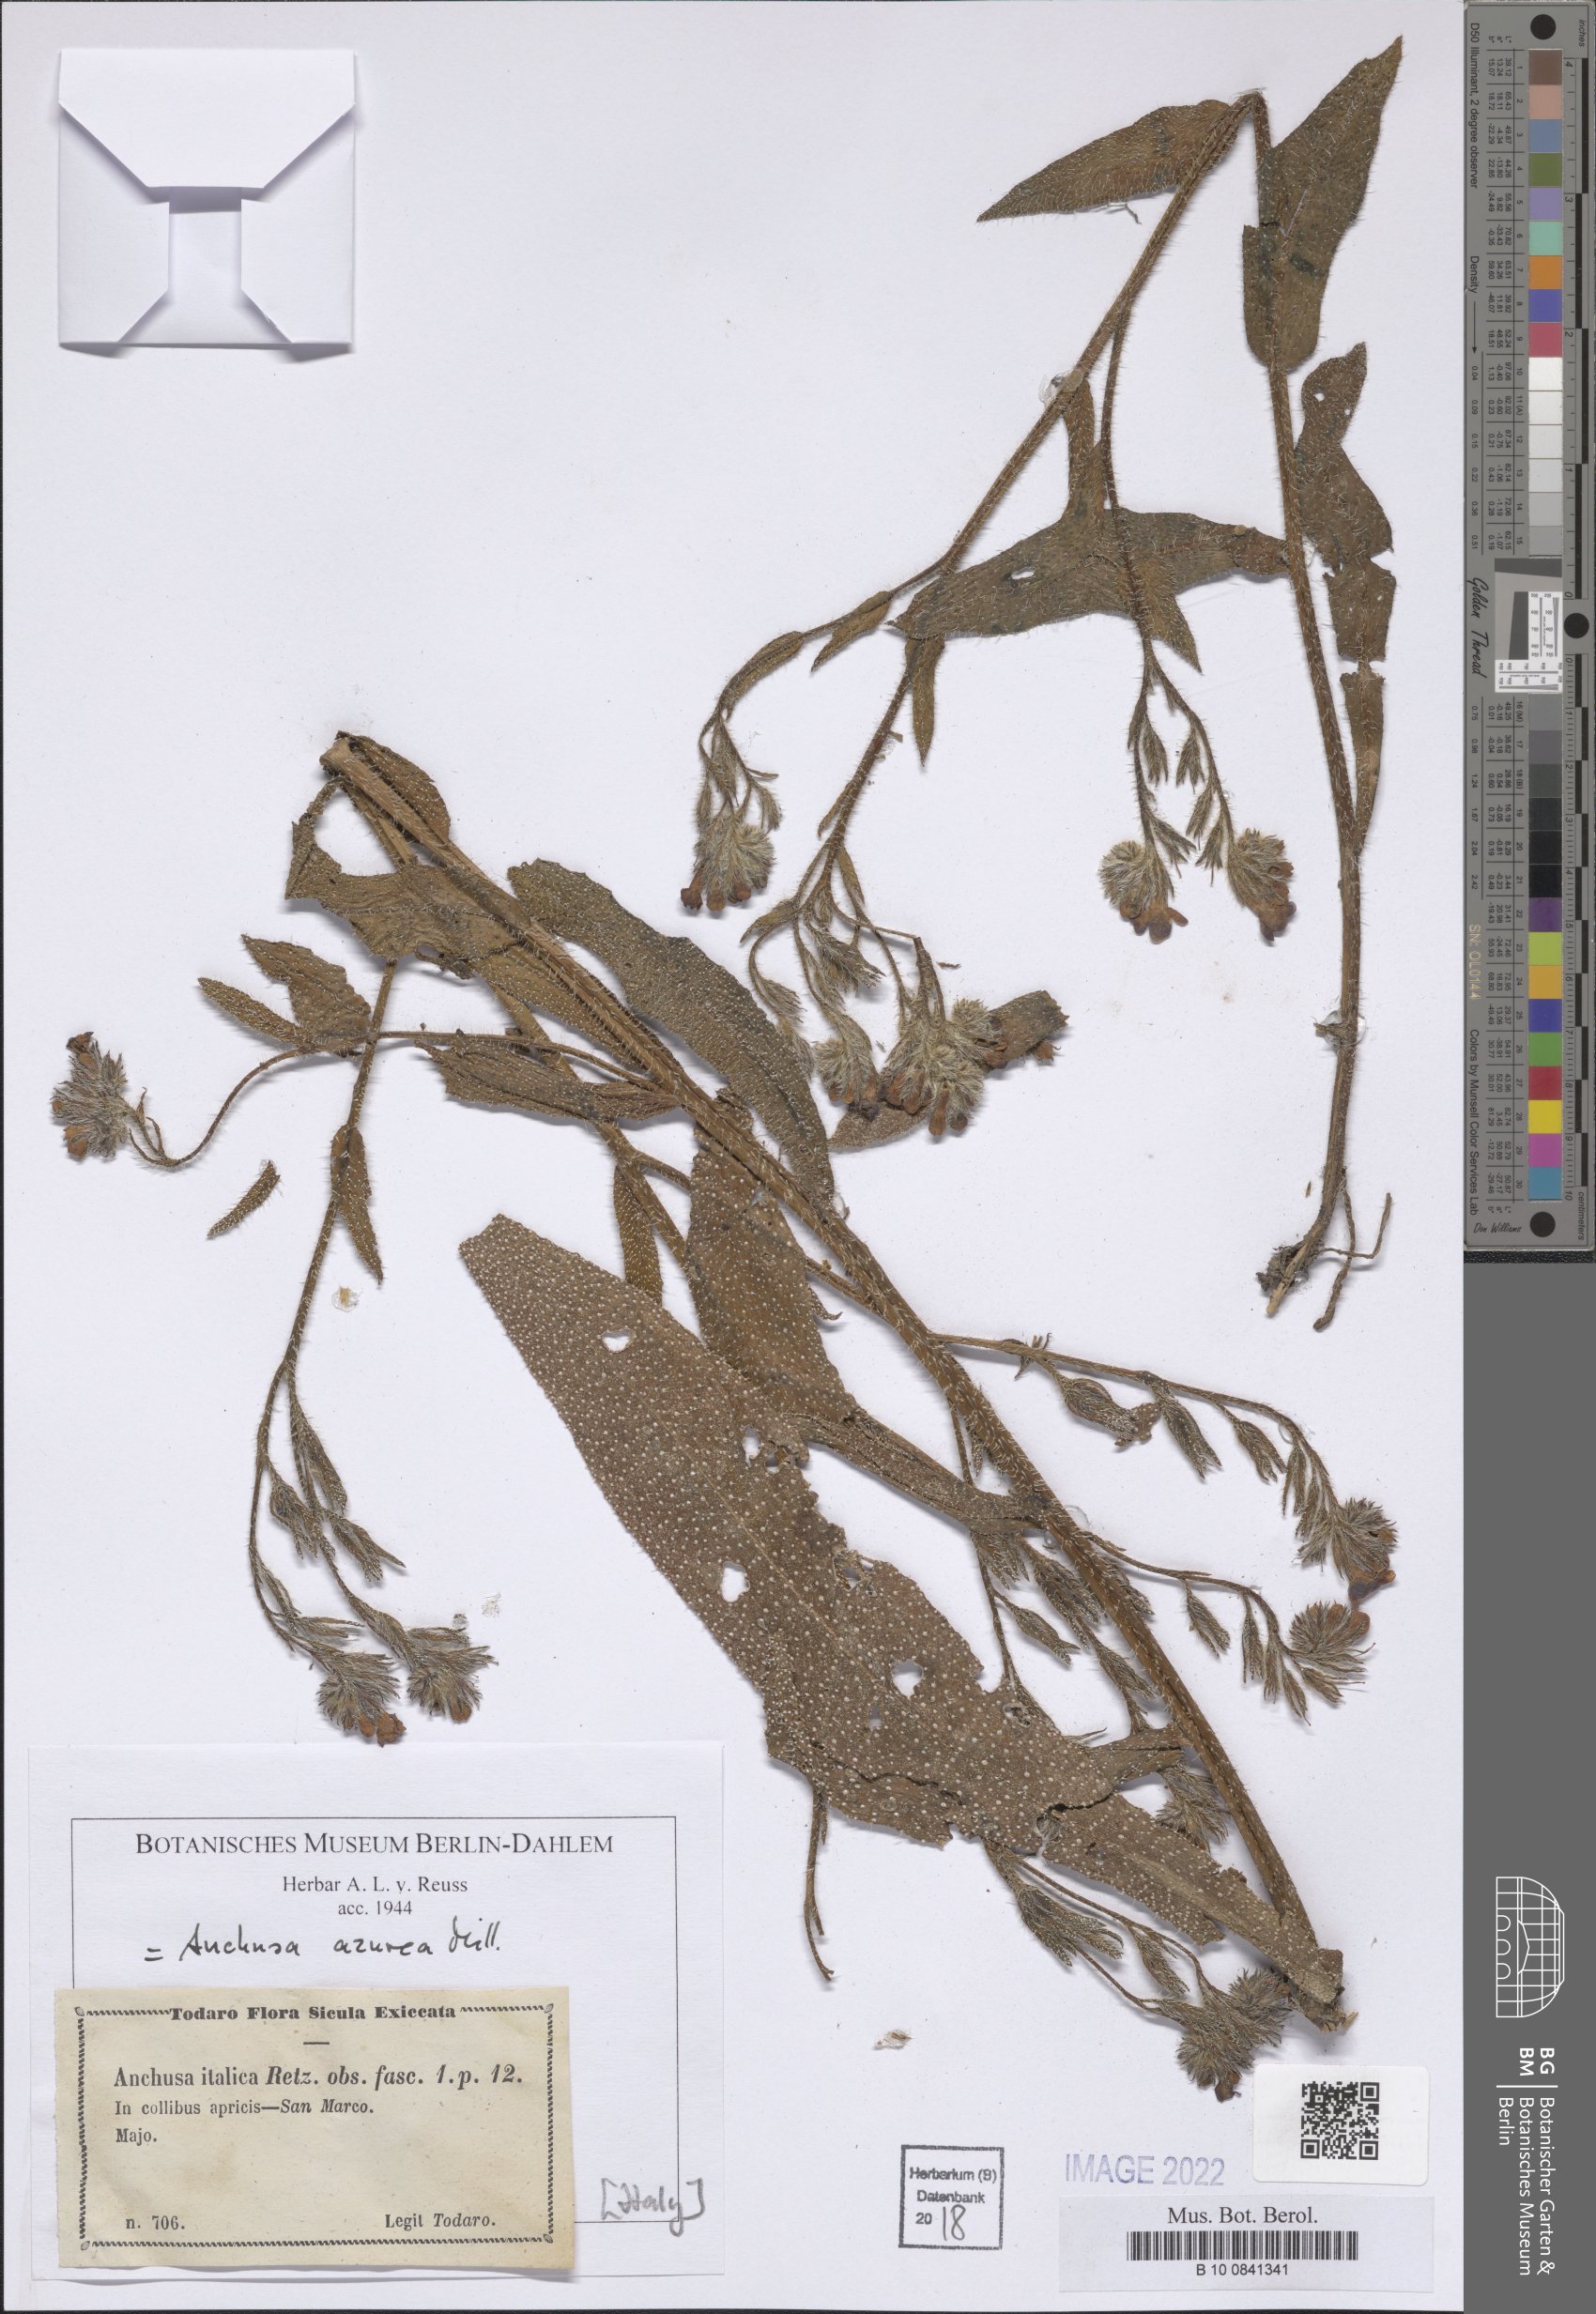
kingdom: Plantae
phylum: Tracheophyta
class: Magnoliopsida
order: Boraginales
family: Boraginaceae
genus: Anchusa
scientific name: Anchusa azurea
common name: Garden anchusa
